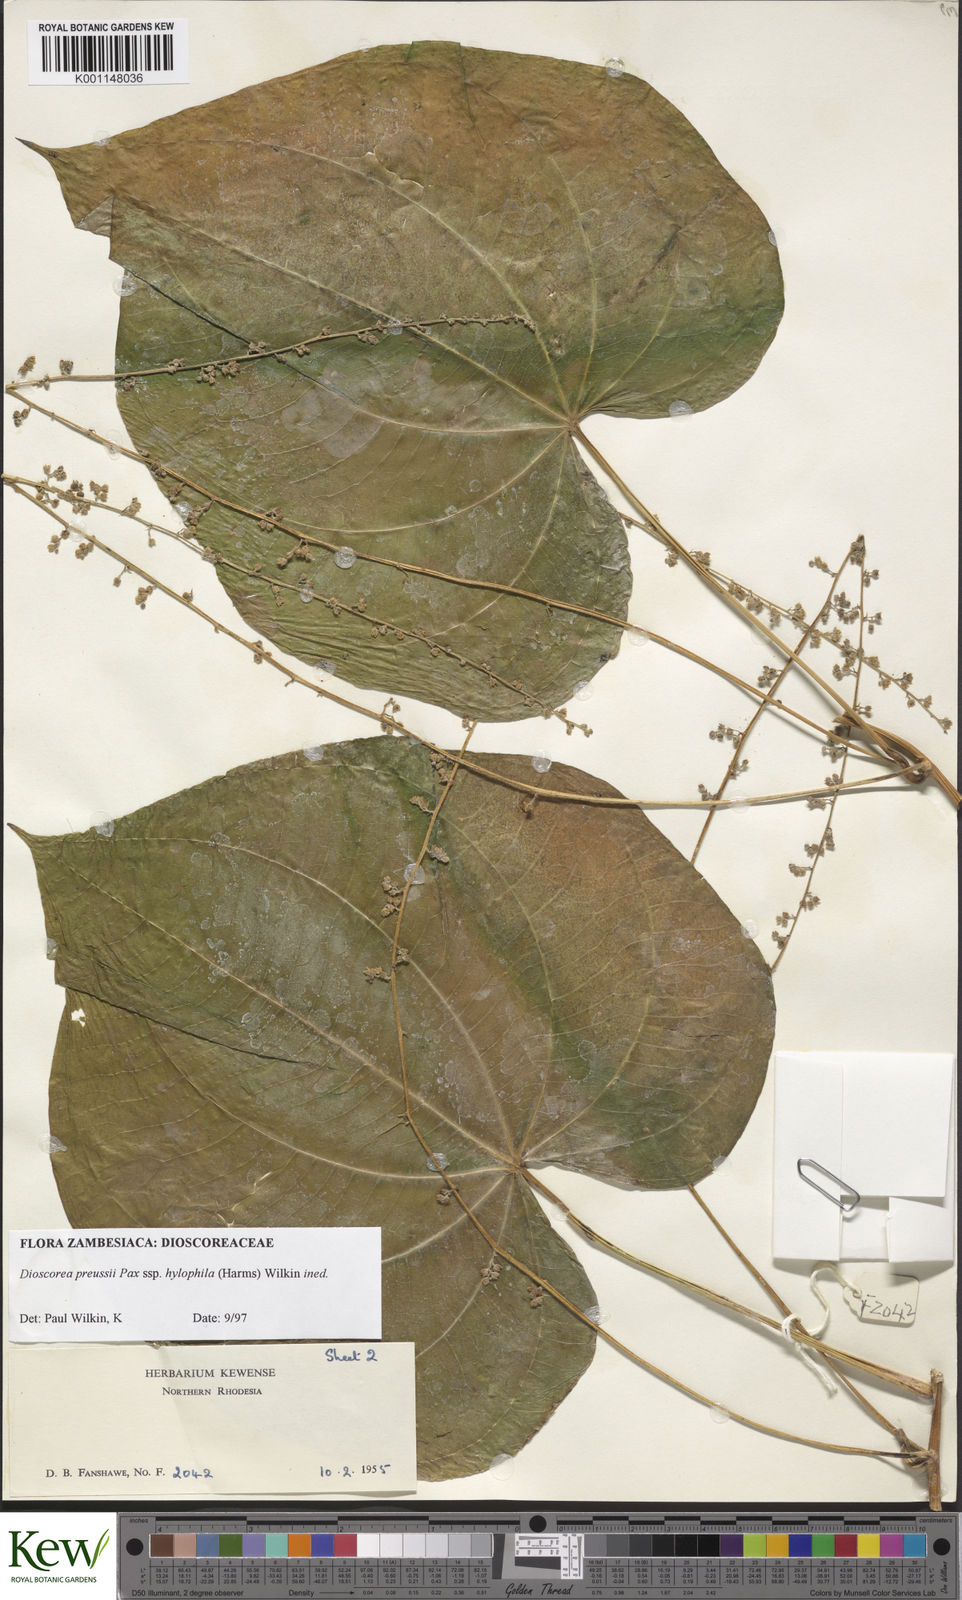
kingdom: Plantae
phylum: Tracheophyta
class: Liliopsida
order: Dioscoreales
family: Dioscoreaceae
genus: Dioscorea
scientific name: Dioscorea preussii
